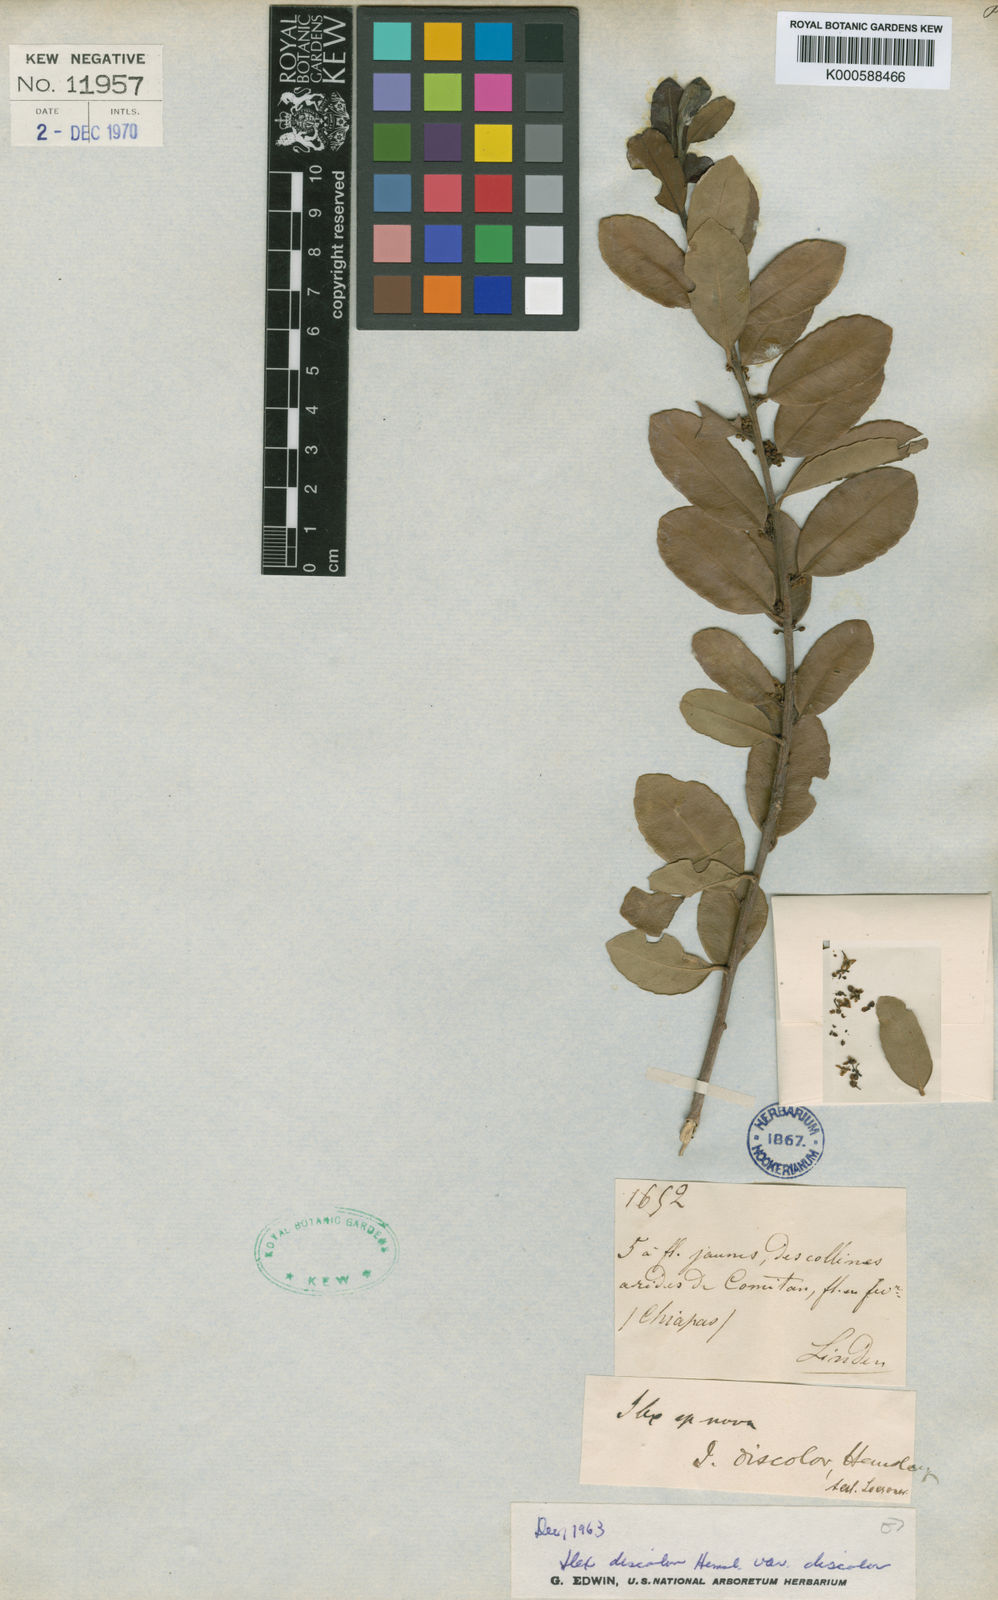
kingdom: Plantae
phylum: Tracheophyta
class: Magnoliopsida
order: Aquifoliales
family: Aquifoliaceae
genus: Ilex
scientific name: Ilex discolor
